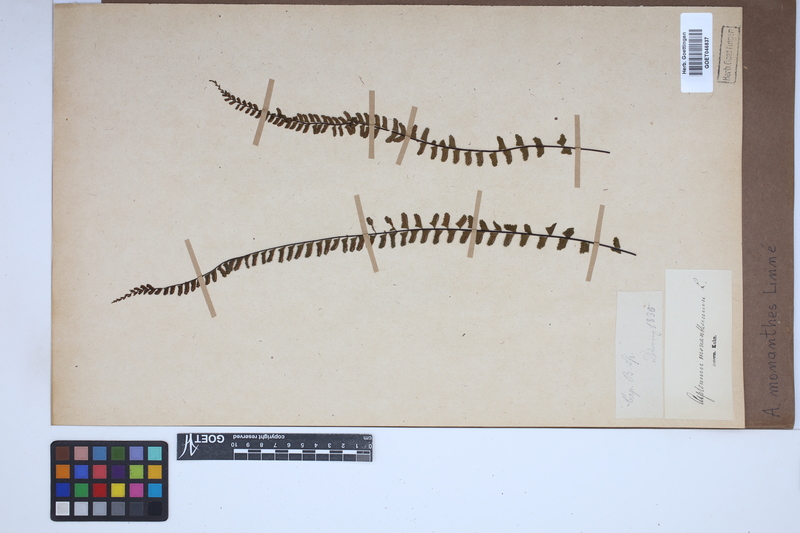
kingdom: Plantae
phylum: Tracheophyta
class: Polypodiopsida
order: Polypodiales
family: Aspleniaceae
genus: Asplenium
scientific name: Asplenium monanthes
